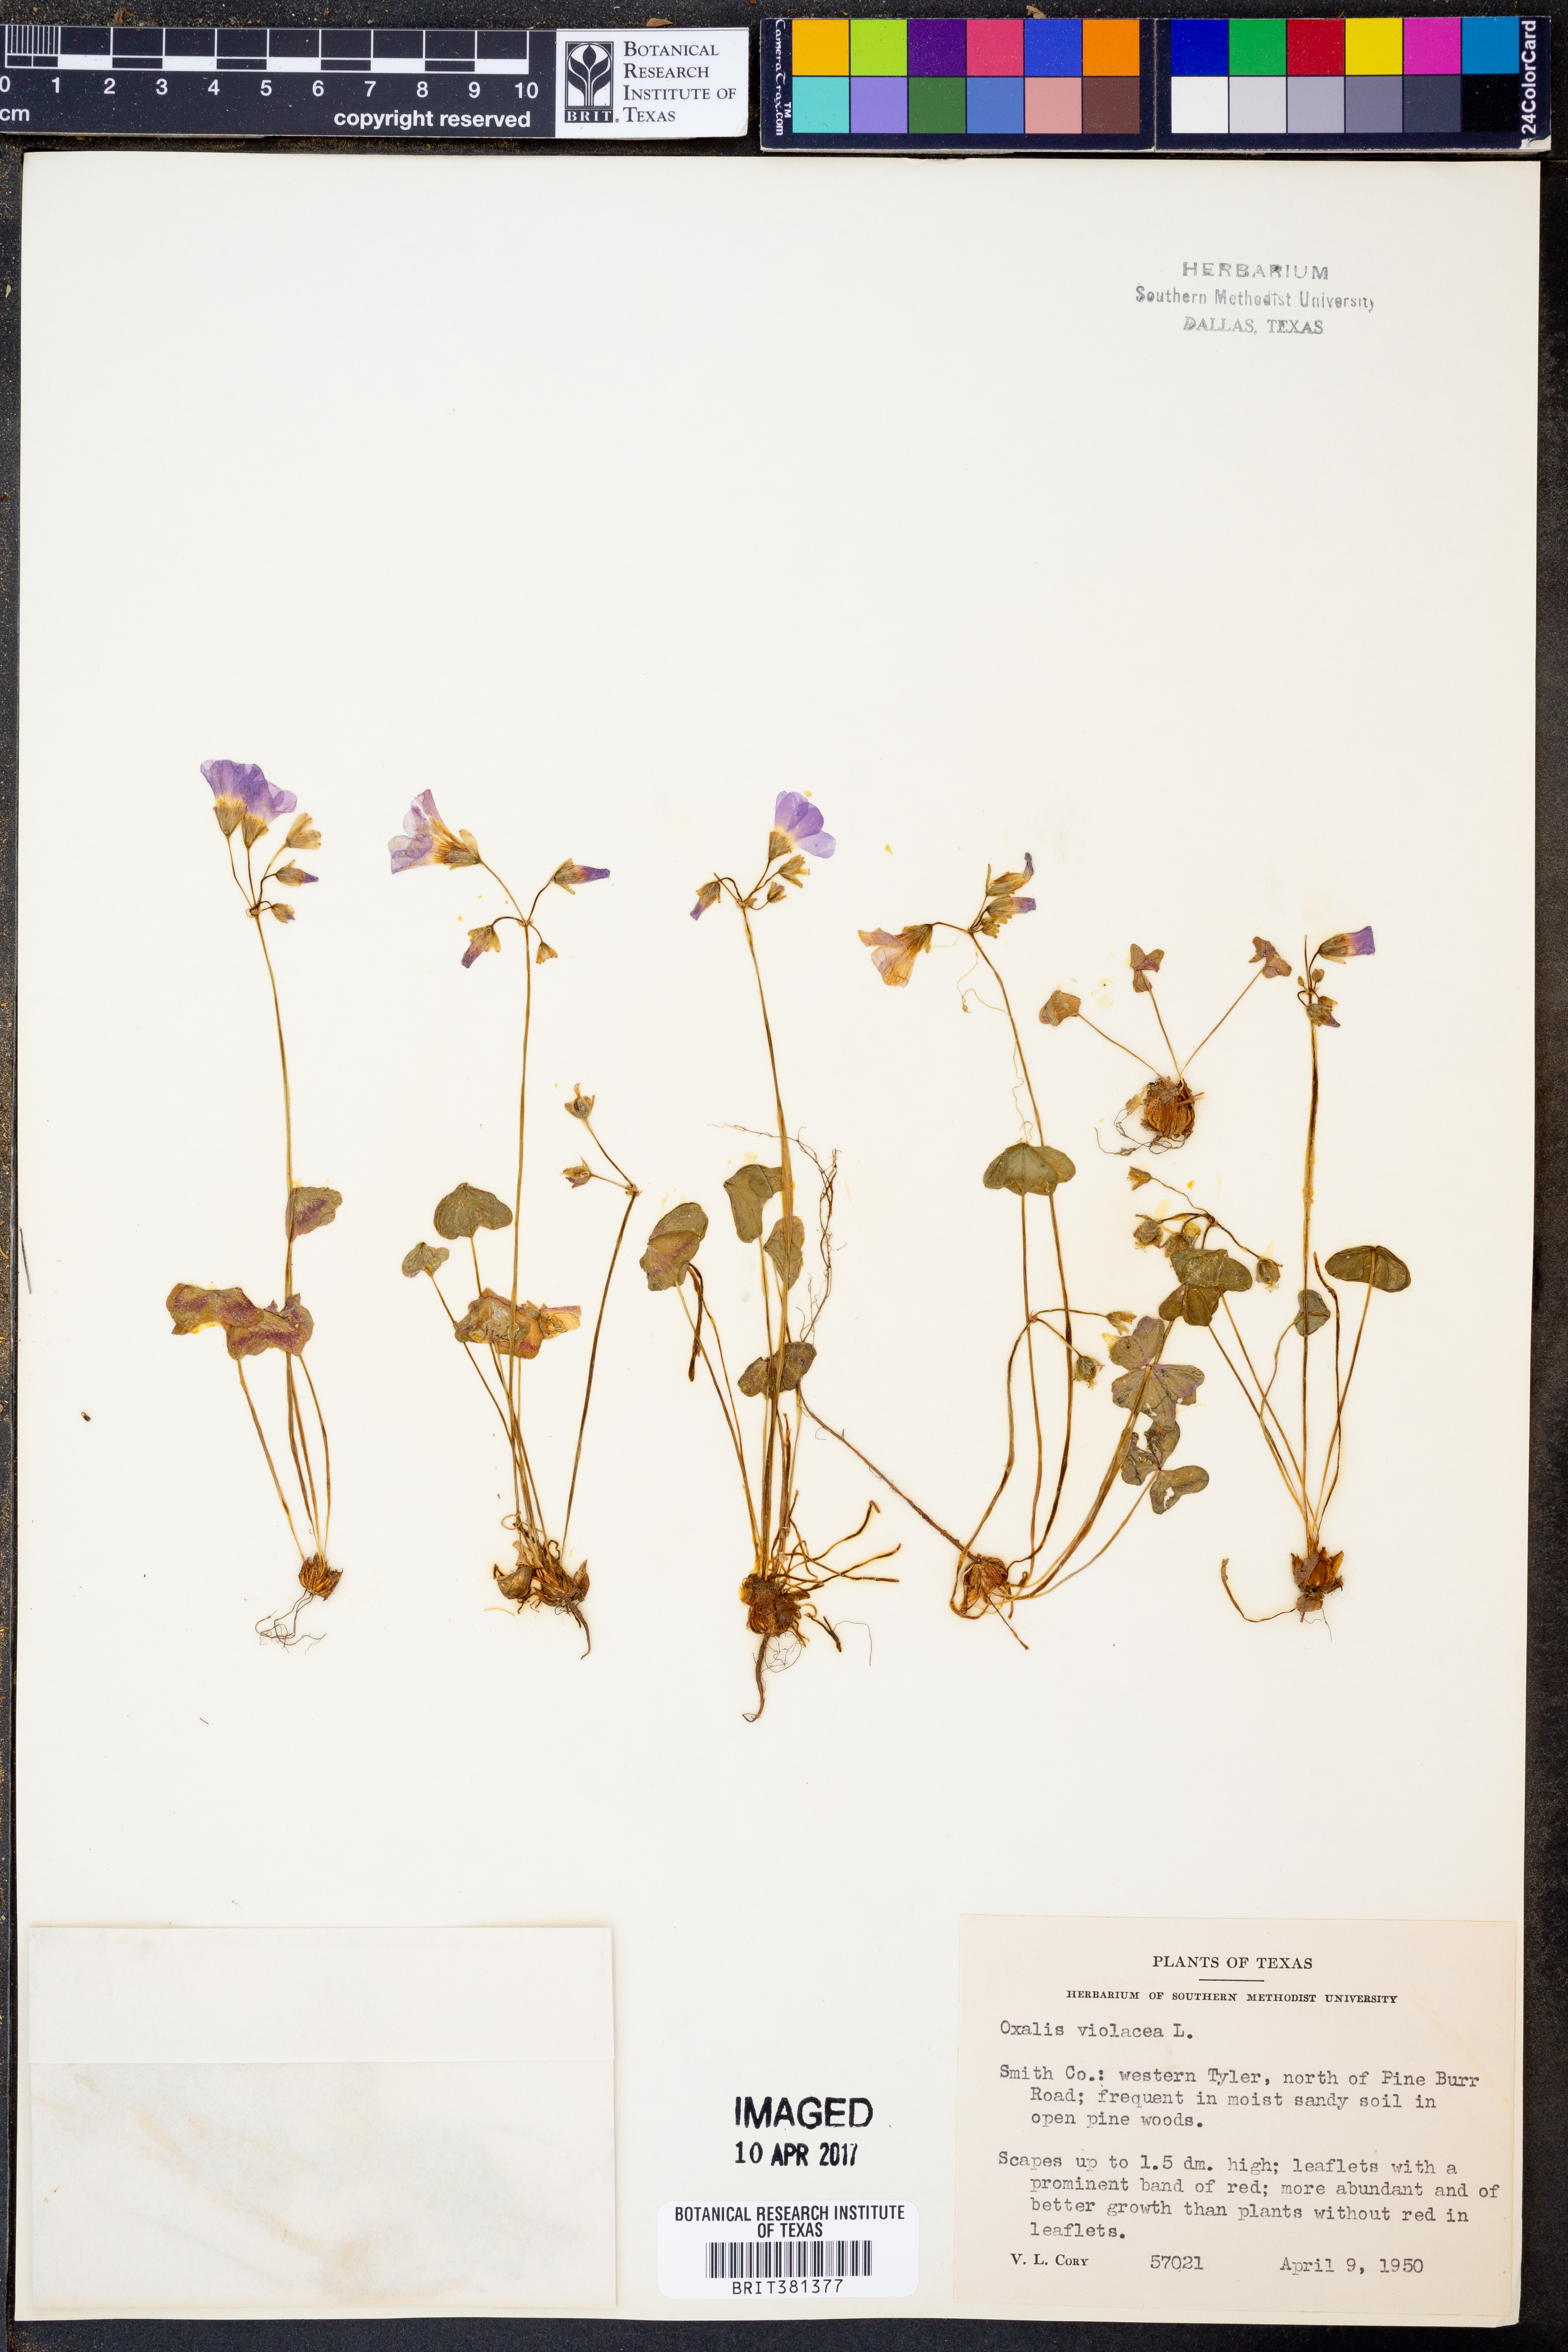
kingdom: Plantae
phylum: Tracheophyta
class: Magnoliopsida
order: Oxalidales
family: Oxalidaceae
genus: Oxalis
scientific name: Oxalis violacea
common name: Violet wood-sorrel
